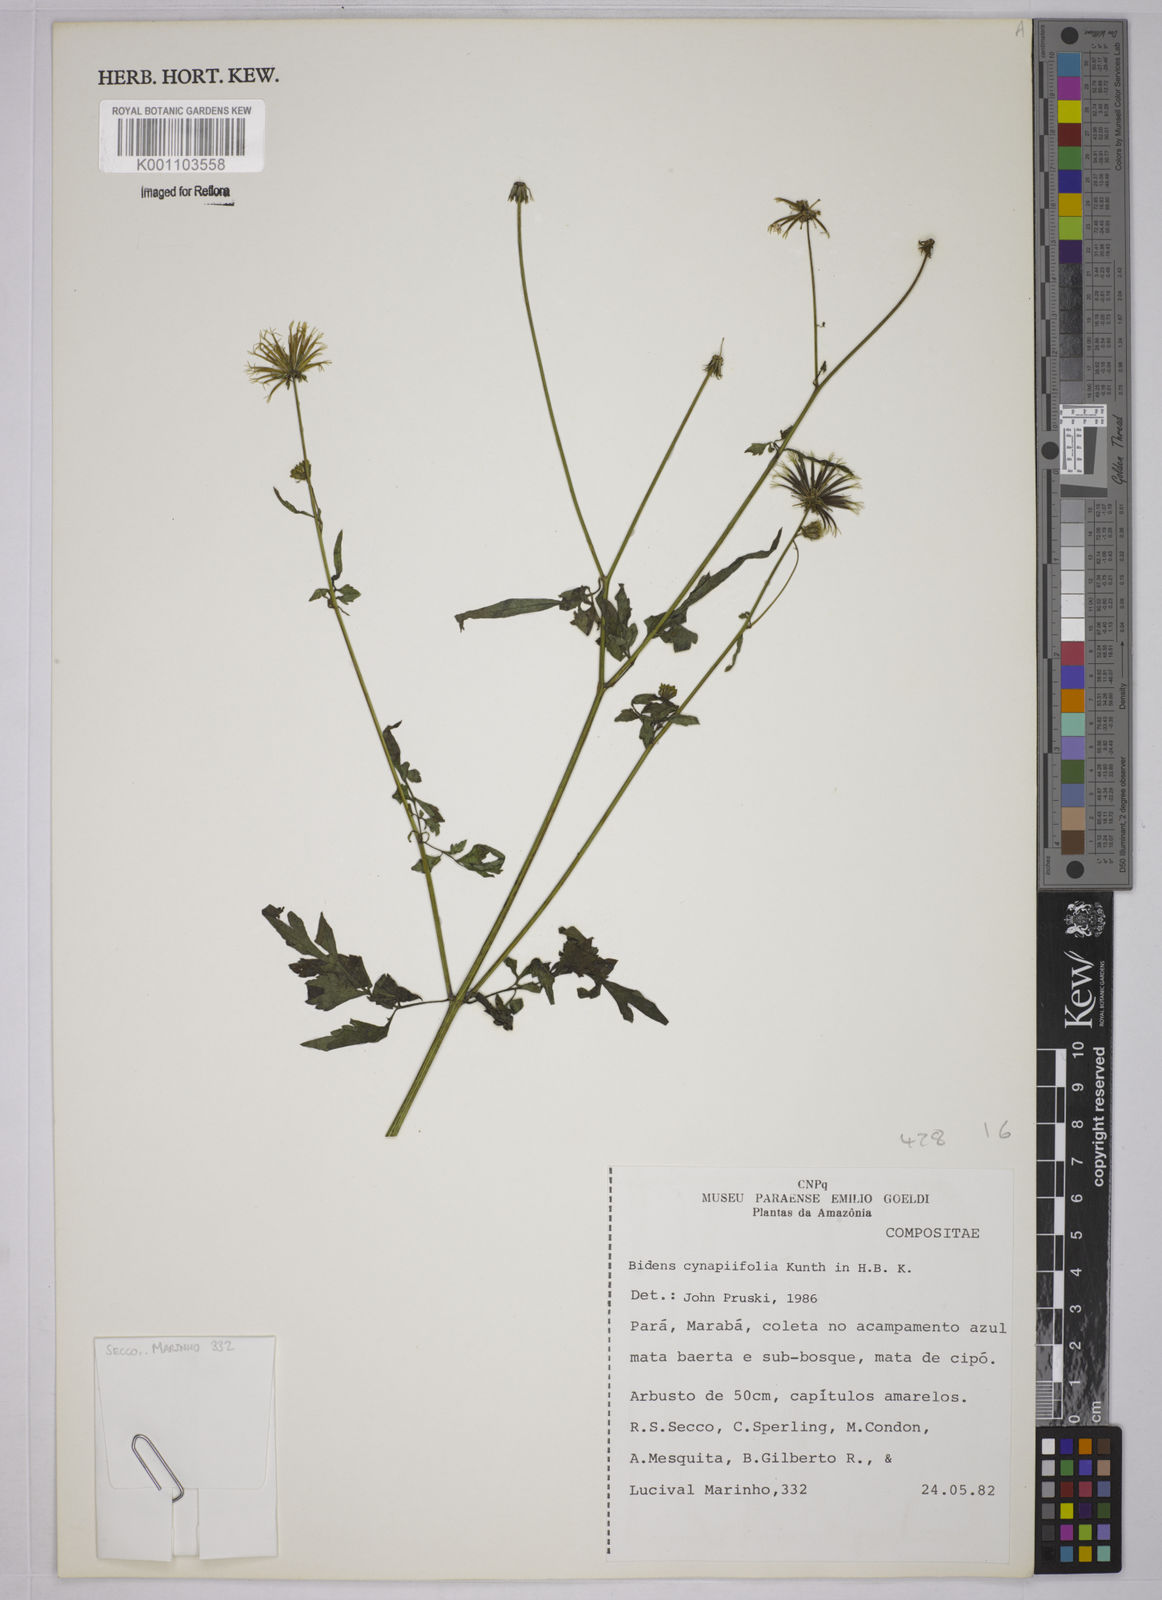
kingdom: Plantae
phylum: Tracheophyta
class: Magnoliopsida
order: Asterales
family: Asteraceae
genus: Bidens
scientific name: Bidens cynapiifolia
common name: Beggar's tick
